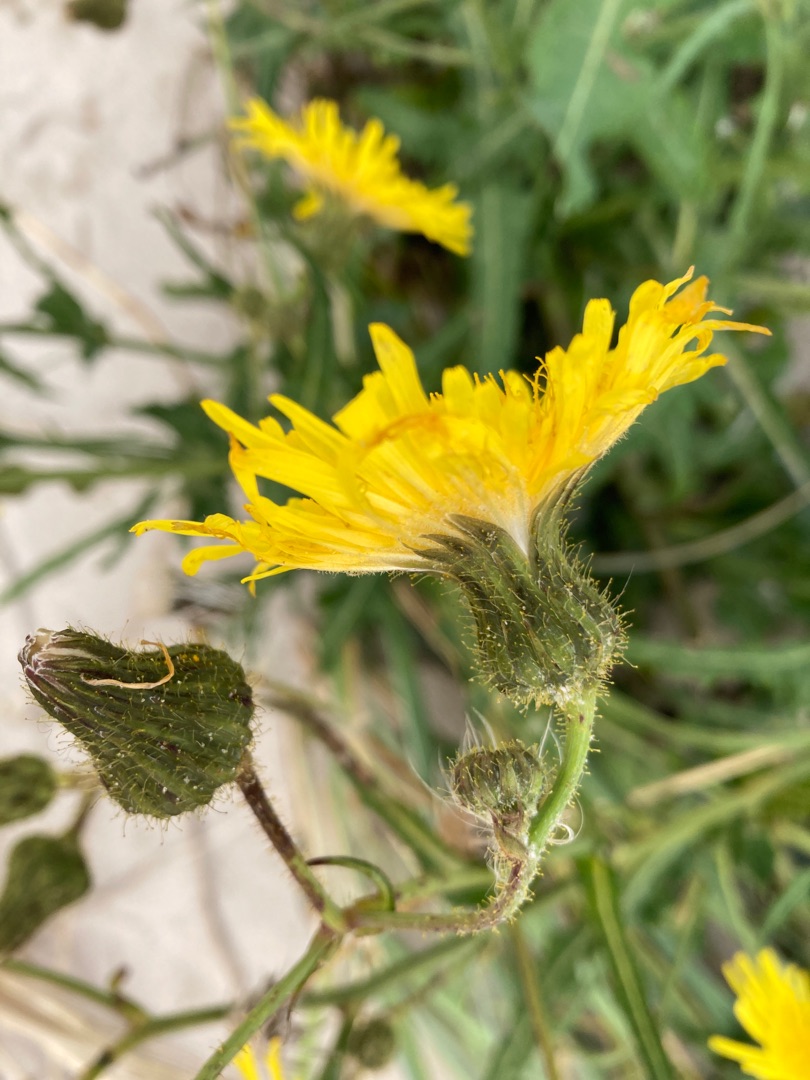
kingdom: Plantae
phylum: Tracheophyta
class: Magnoliopsida
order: Asterales
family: Asteraceae
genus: Sonchus
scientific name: Sonchus arvensis
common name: Ager-svinemælk
